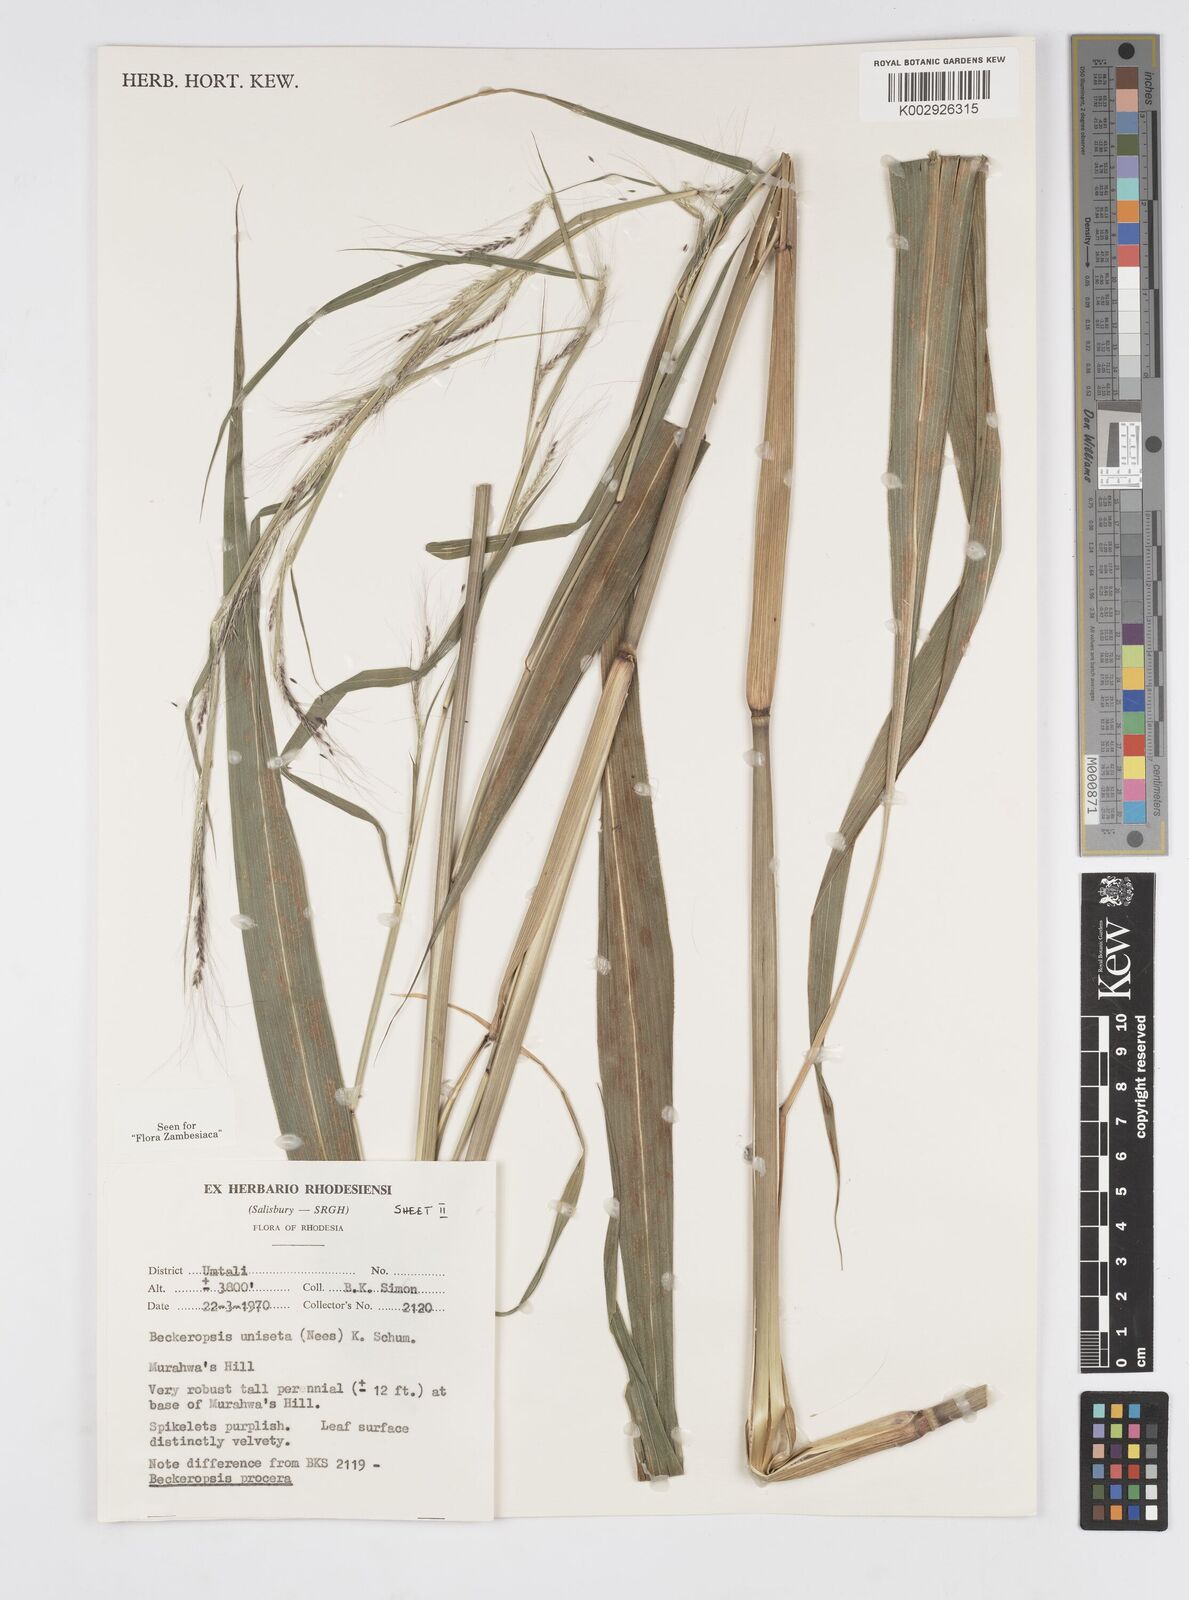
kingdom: Plantae
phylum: Tracheophyta
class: Liliopsida
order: Poales
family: Poaceae
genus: Cenchrus
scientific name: Cenchrus unisetus
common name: Natal grass
